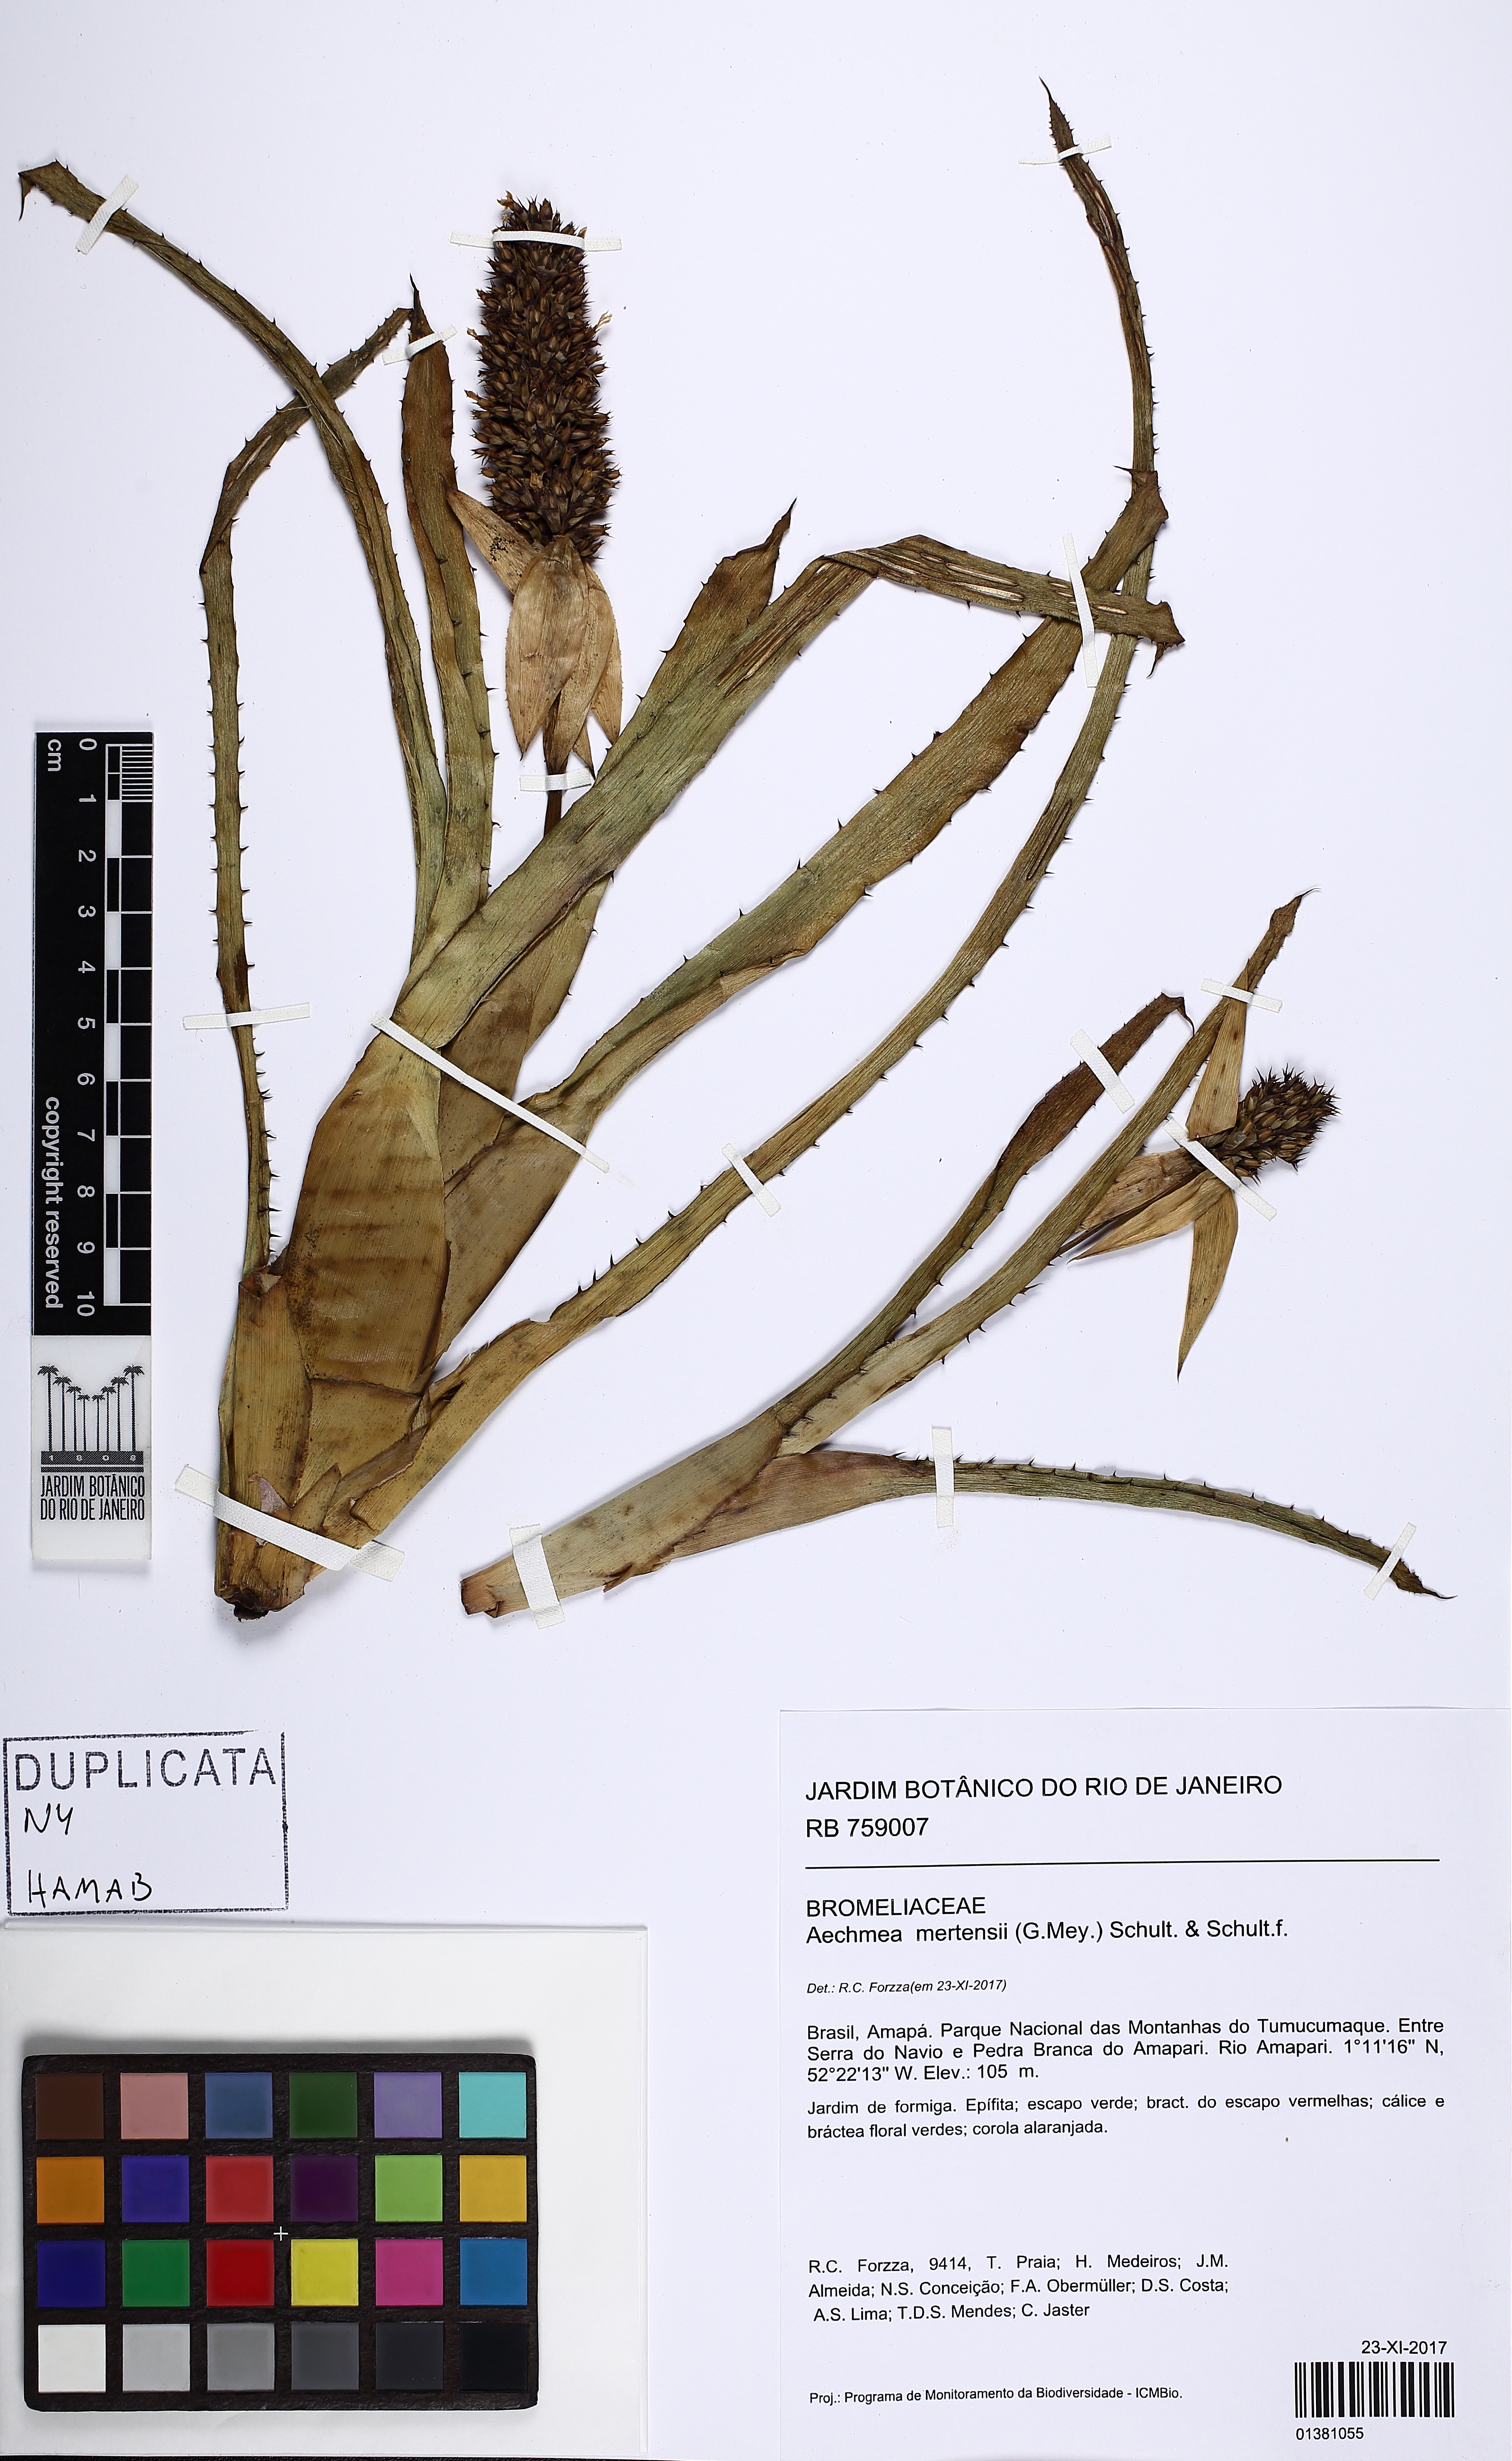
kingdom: Plantae
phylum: Tracheophyta
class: Liliopsida
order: Poales
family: Bromeliaceae
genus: Aechmea
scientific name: Aechmea mertensii
